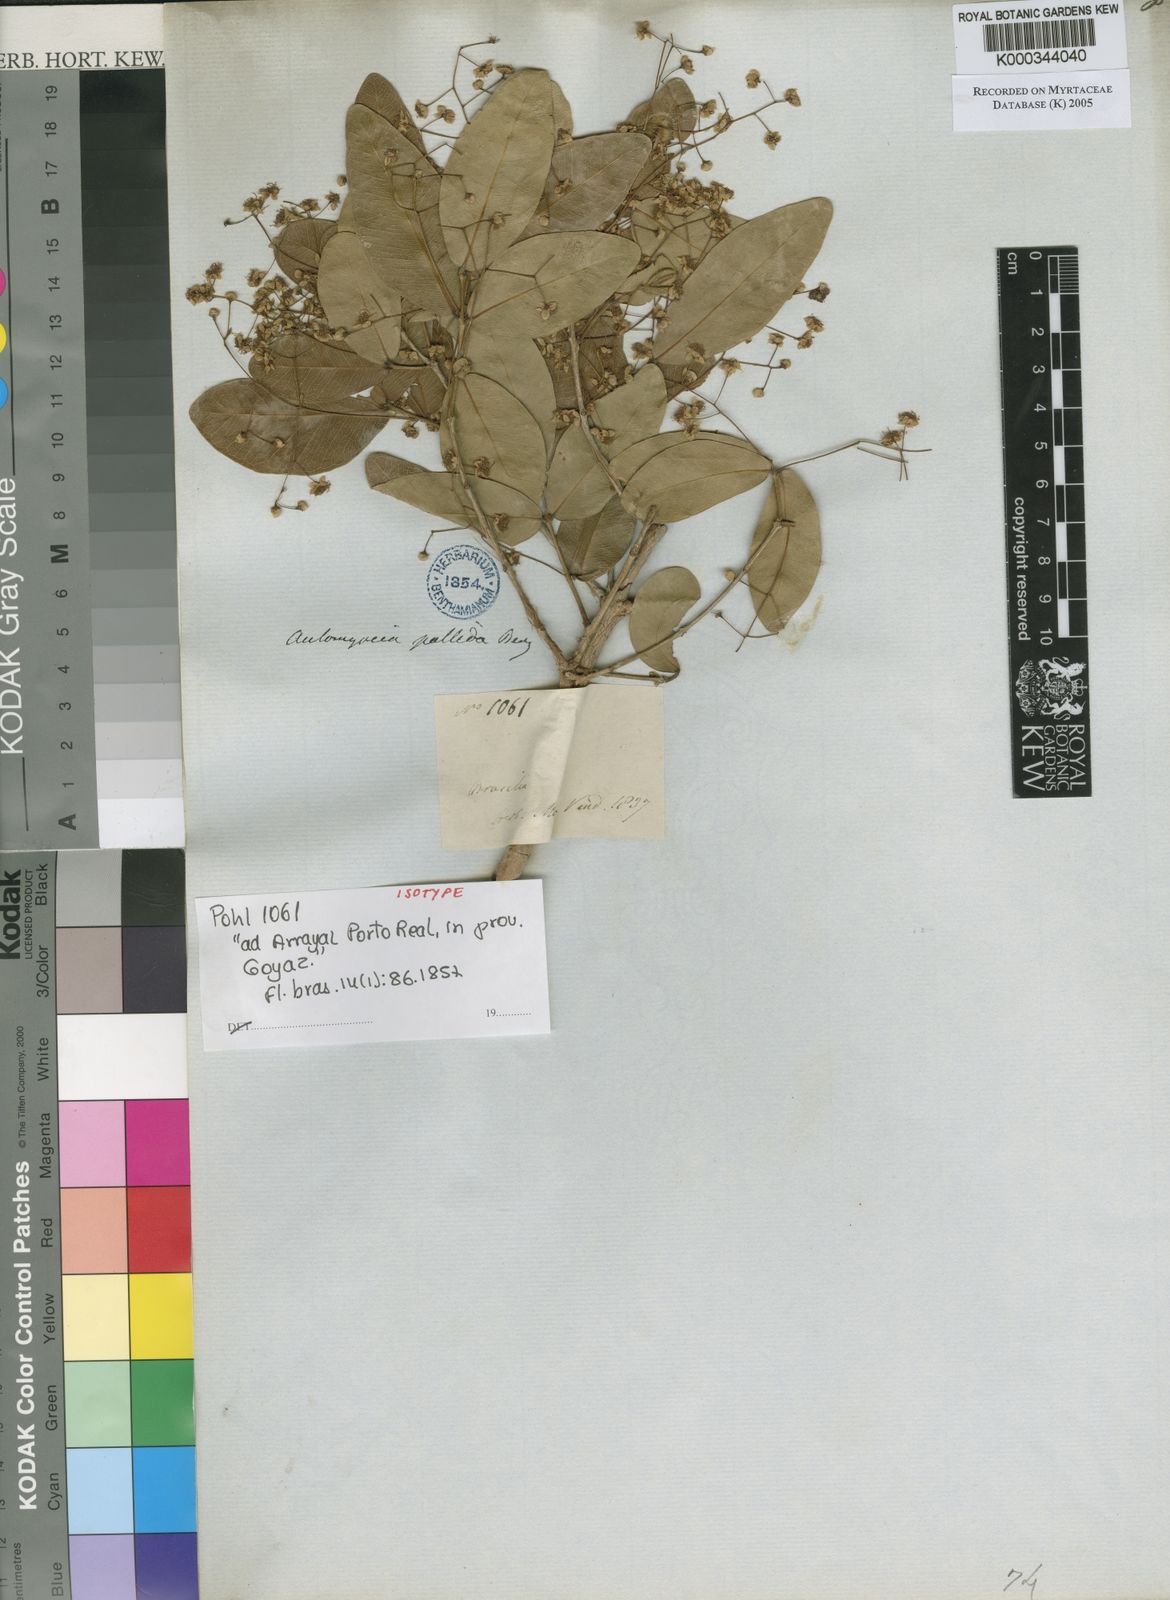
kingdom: Plantae
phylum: Tracheophyta
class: Magnoliopsida
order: Myrtales
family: Myrtaceae
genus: Myrcia
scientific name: Myrcia guianensis
